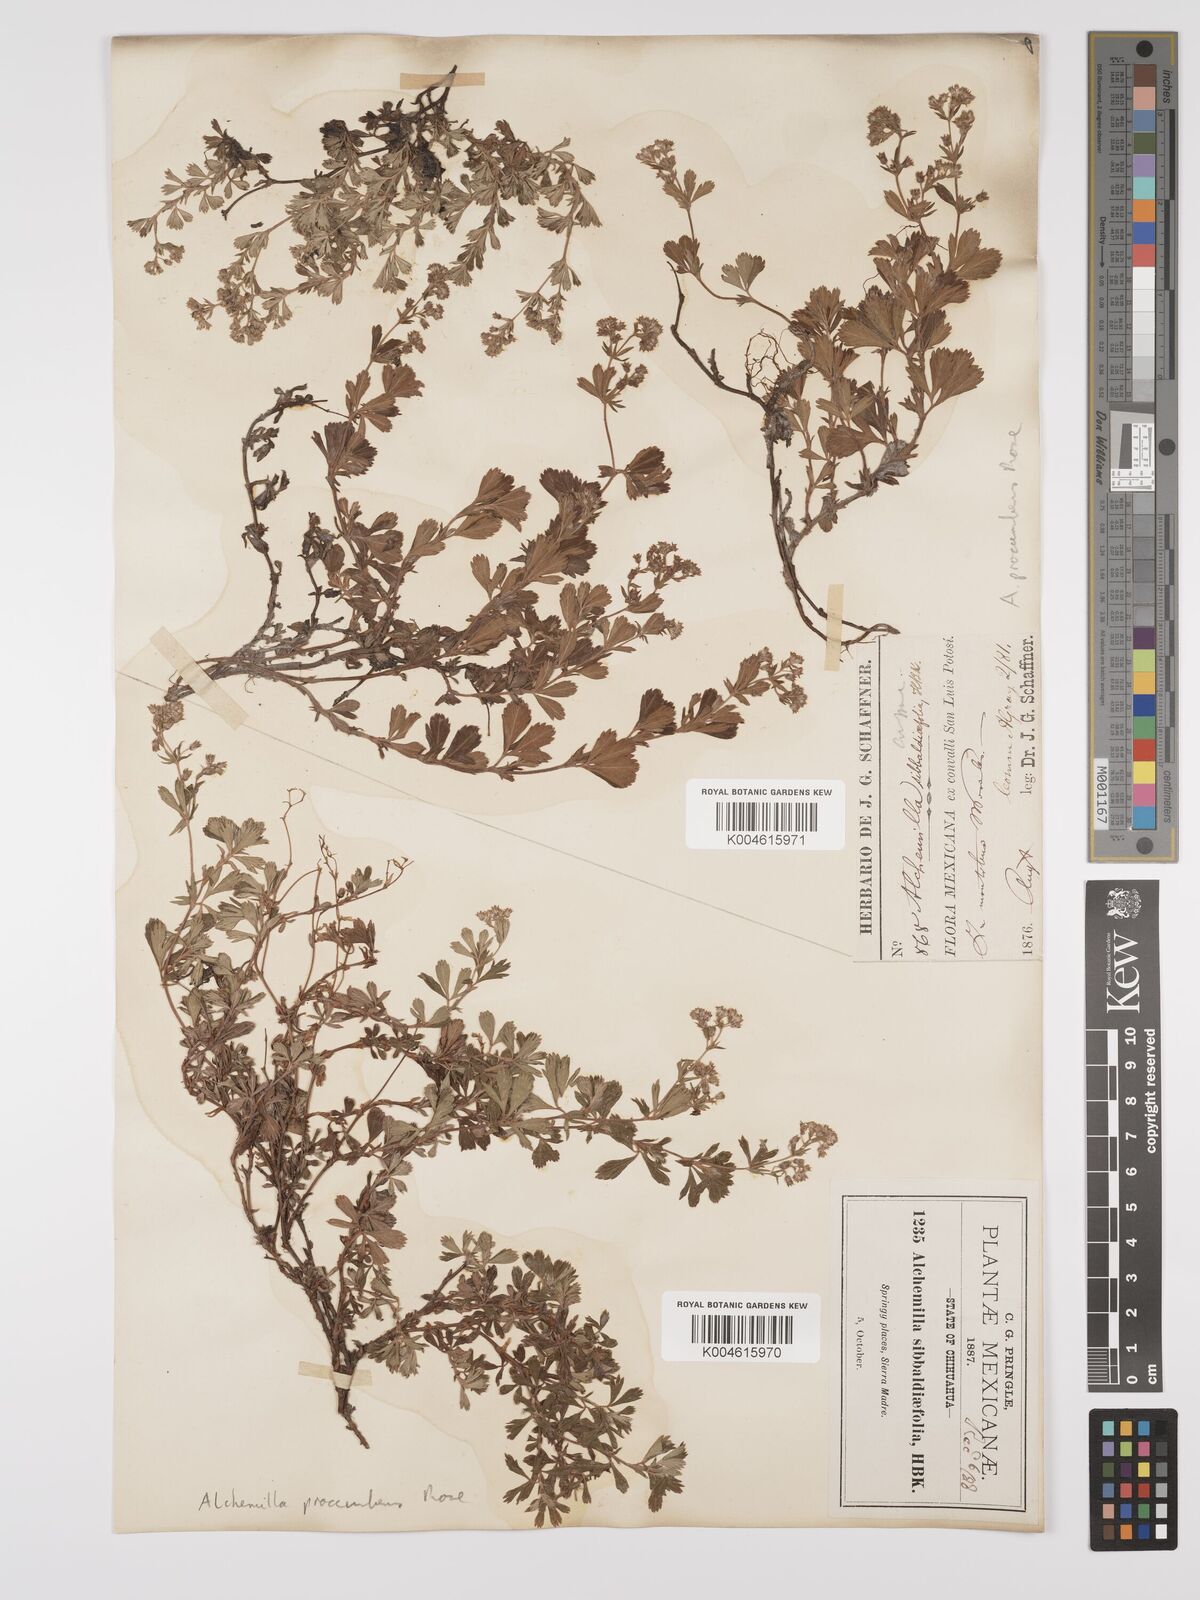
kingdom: Plantae
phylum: Tracheophyta
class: Magnoliopsida
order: Rosales
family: Rosaceae
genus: Lachemilla
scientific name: Lachemilla procumbens
